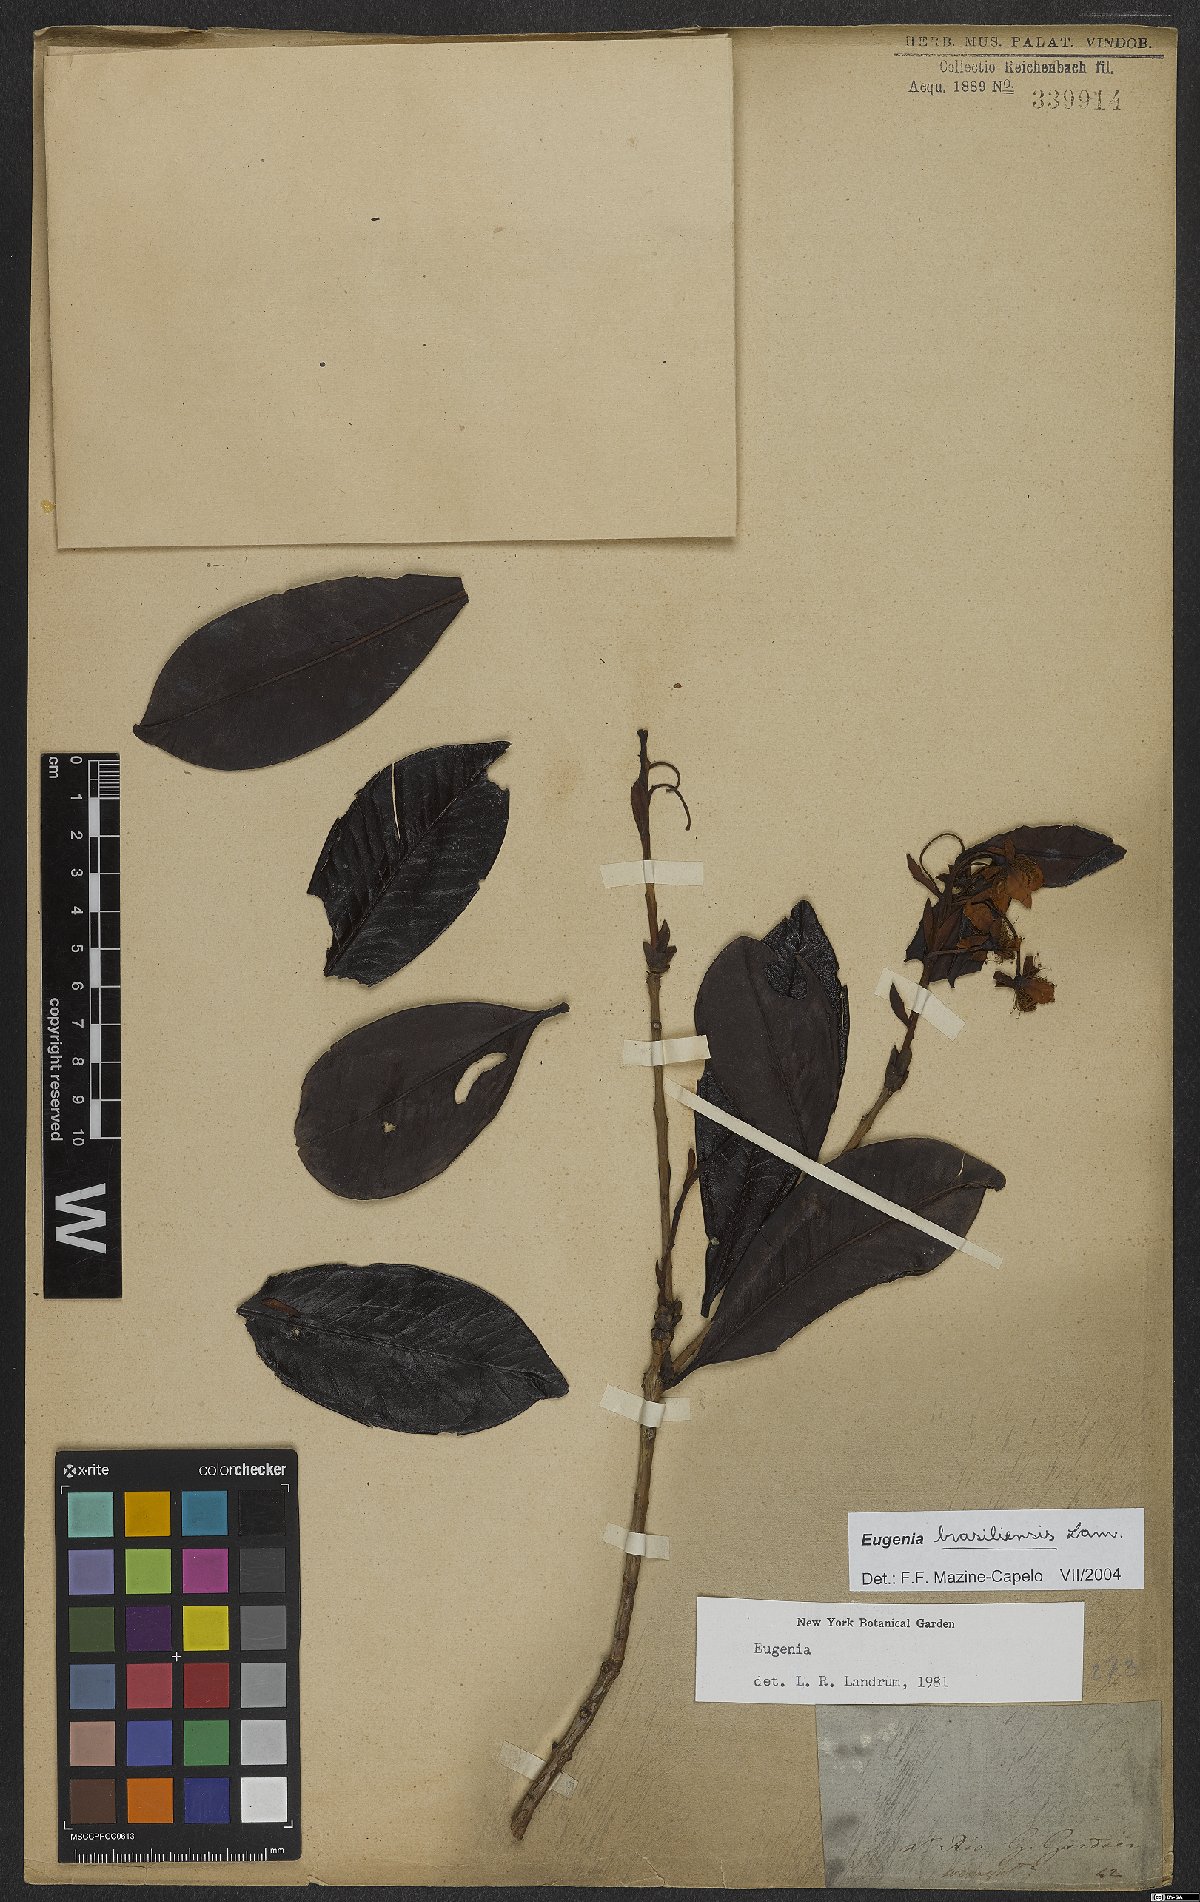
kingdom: Plantae
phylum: Tracheophyta
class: Magnoliopsida
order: Myrtales
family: Myrtaceae
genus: Eugenia
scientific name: Eugenia brasiliensis
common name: Grumichama
